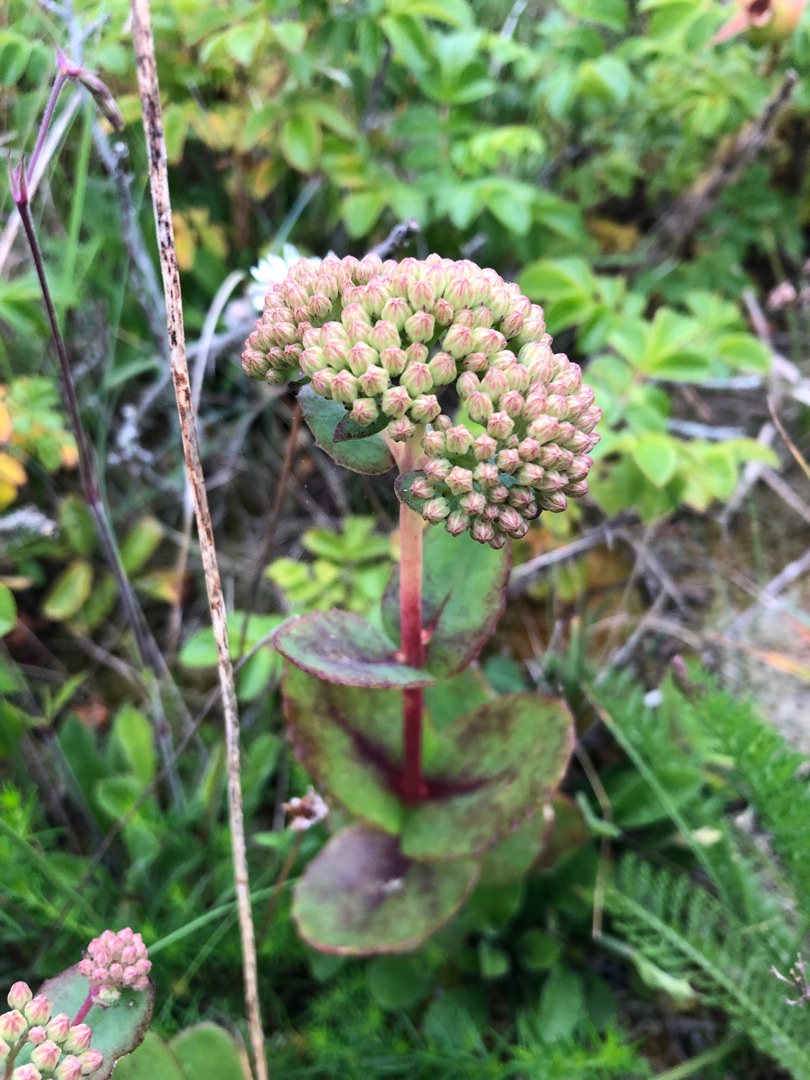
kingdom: Plantae
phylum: Tracheophyta
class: Magnoliopsida
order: Saxifragales
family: Crassulaceae
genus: Hylotelephium
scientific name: Hylotelephium maximum
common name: Almindelig sankthansurt
